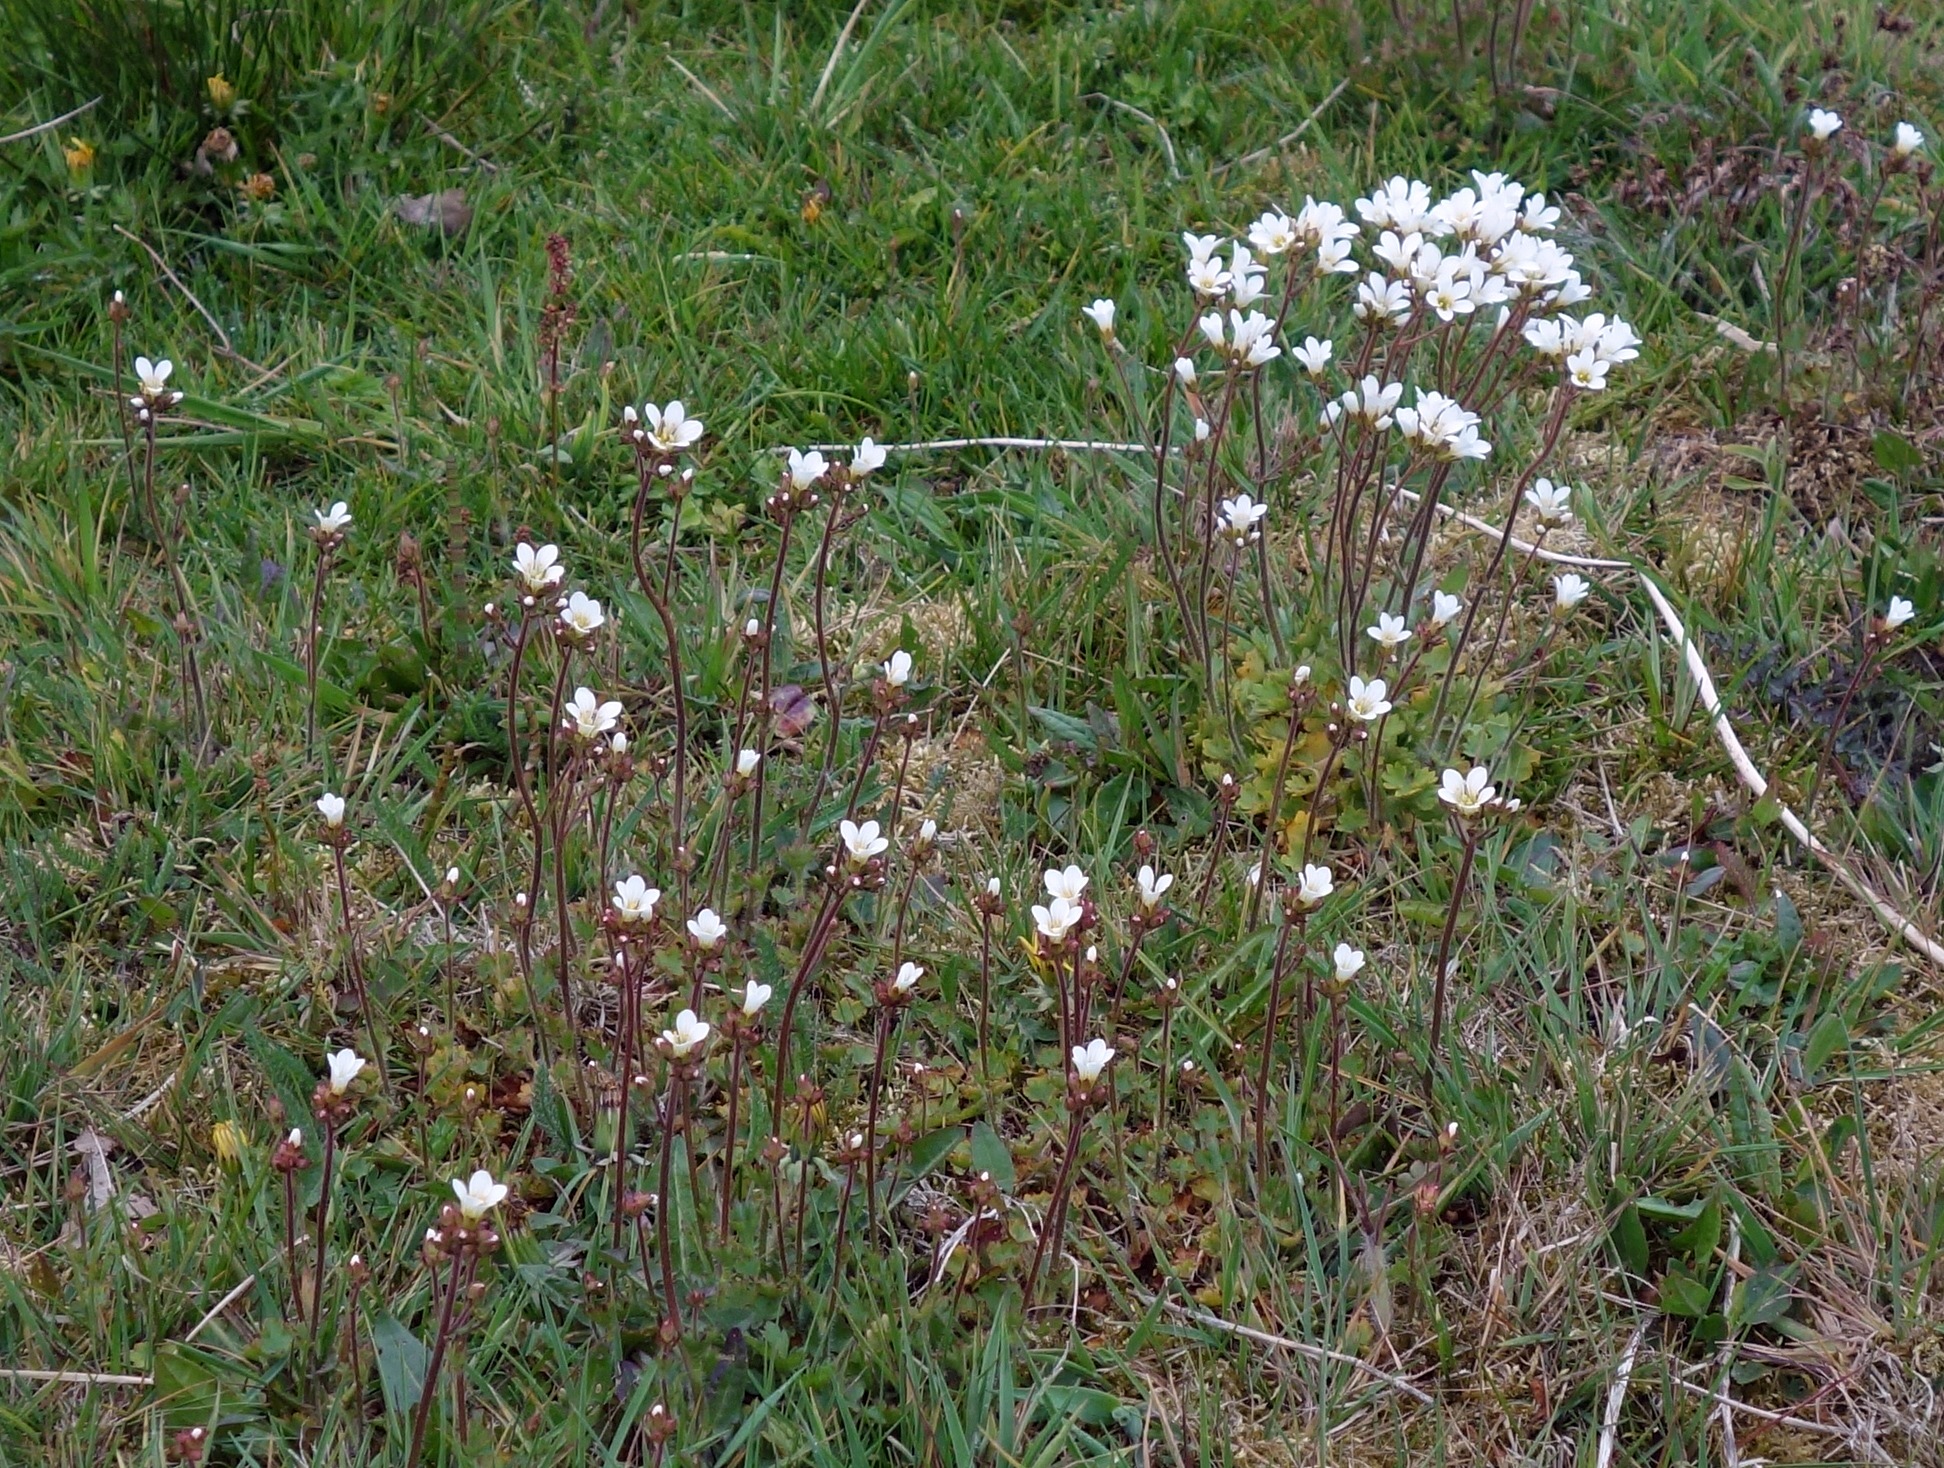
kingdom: Plantae
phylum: Tracheophyta
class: Magnoliopsida
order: Saxifragales
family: Saxifragaceae
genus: Saxifraga
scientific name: Saxifraga granulata
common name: Kornet stenbræk
